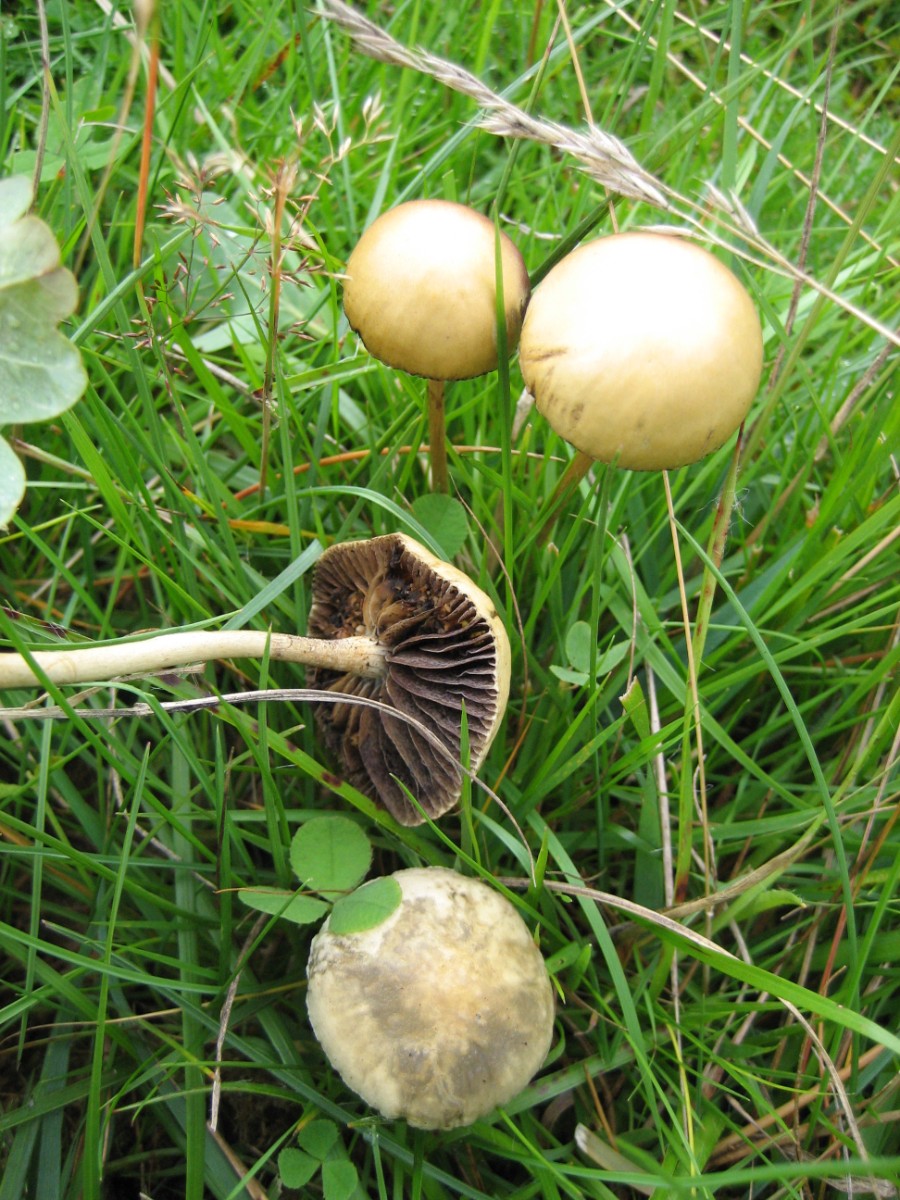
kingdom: Fungi
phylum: Basidiomycota
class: Agaricomycetes
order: Agaricales
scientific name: Agaricales
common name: champignonordenen
